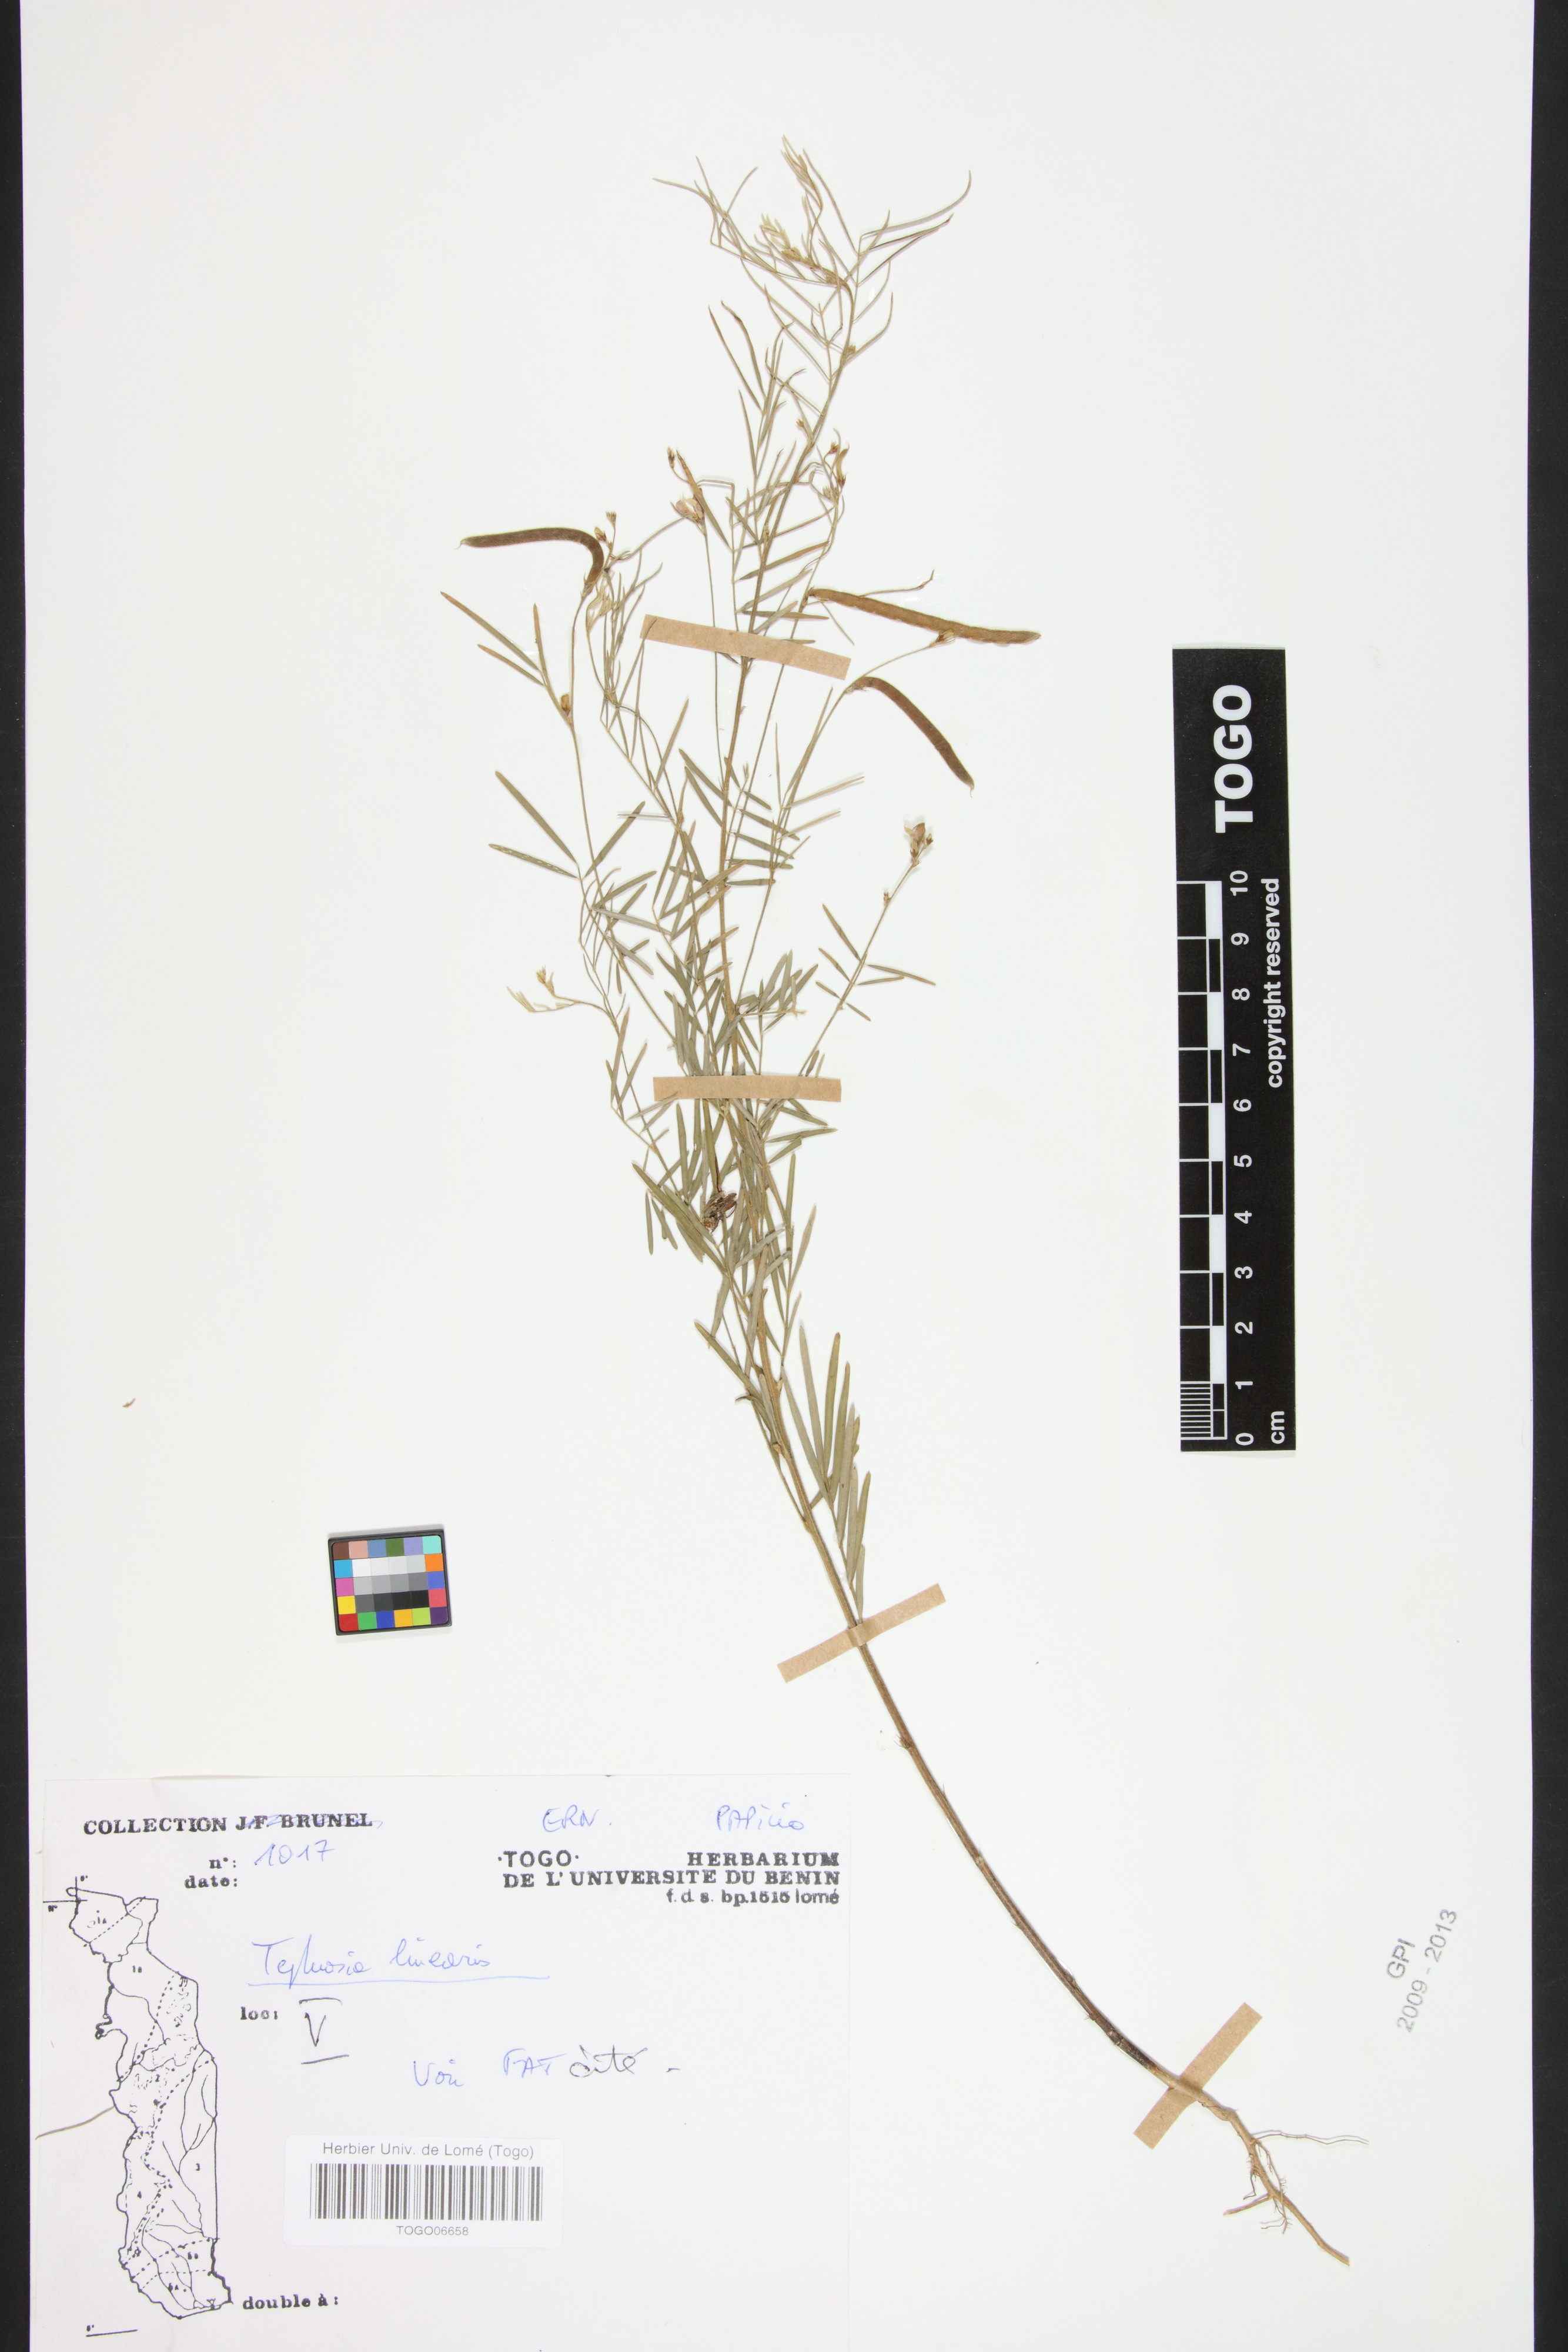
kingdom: Plantae
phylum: Tracheophyta
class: Magnoliopsida
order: Fabales
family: Fabaceae
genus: Tephrosia
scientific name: Tephrosia linearis
